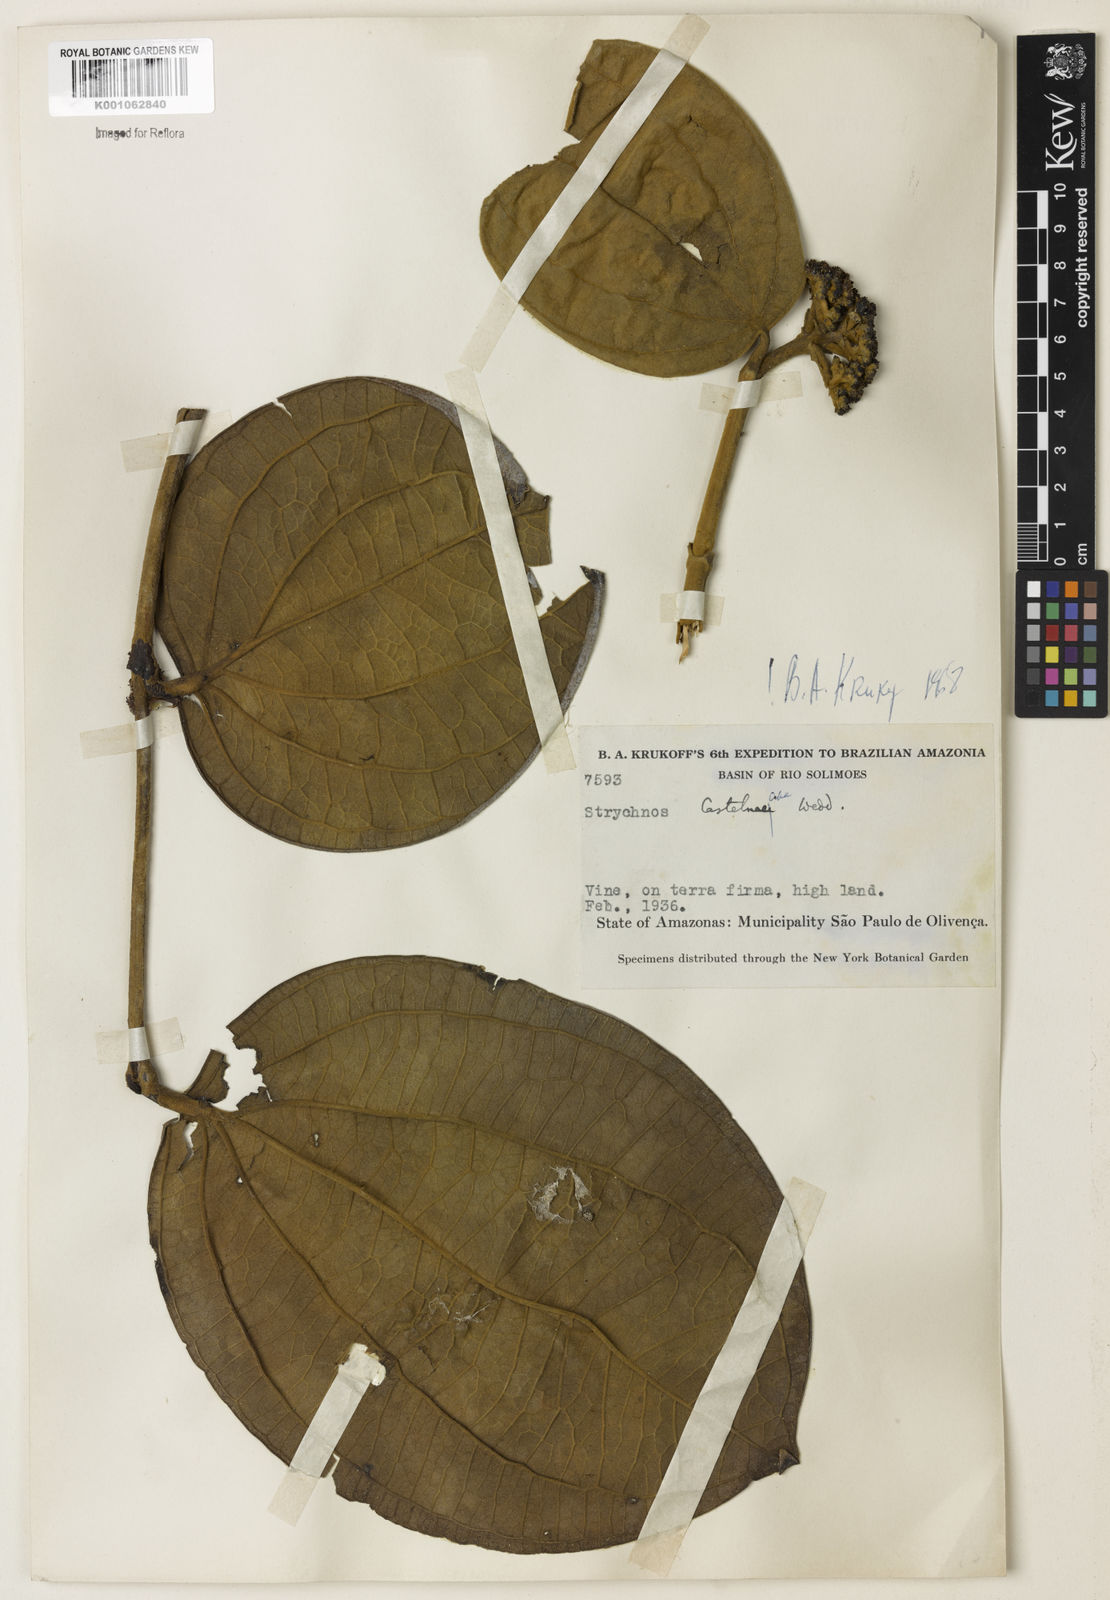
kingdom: Plantae
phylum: Tracheophyta
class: Magnoliopsida
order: Gentianales
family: Loganiaceae
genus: Strychnos
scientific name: Strychnos
